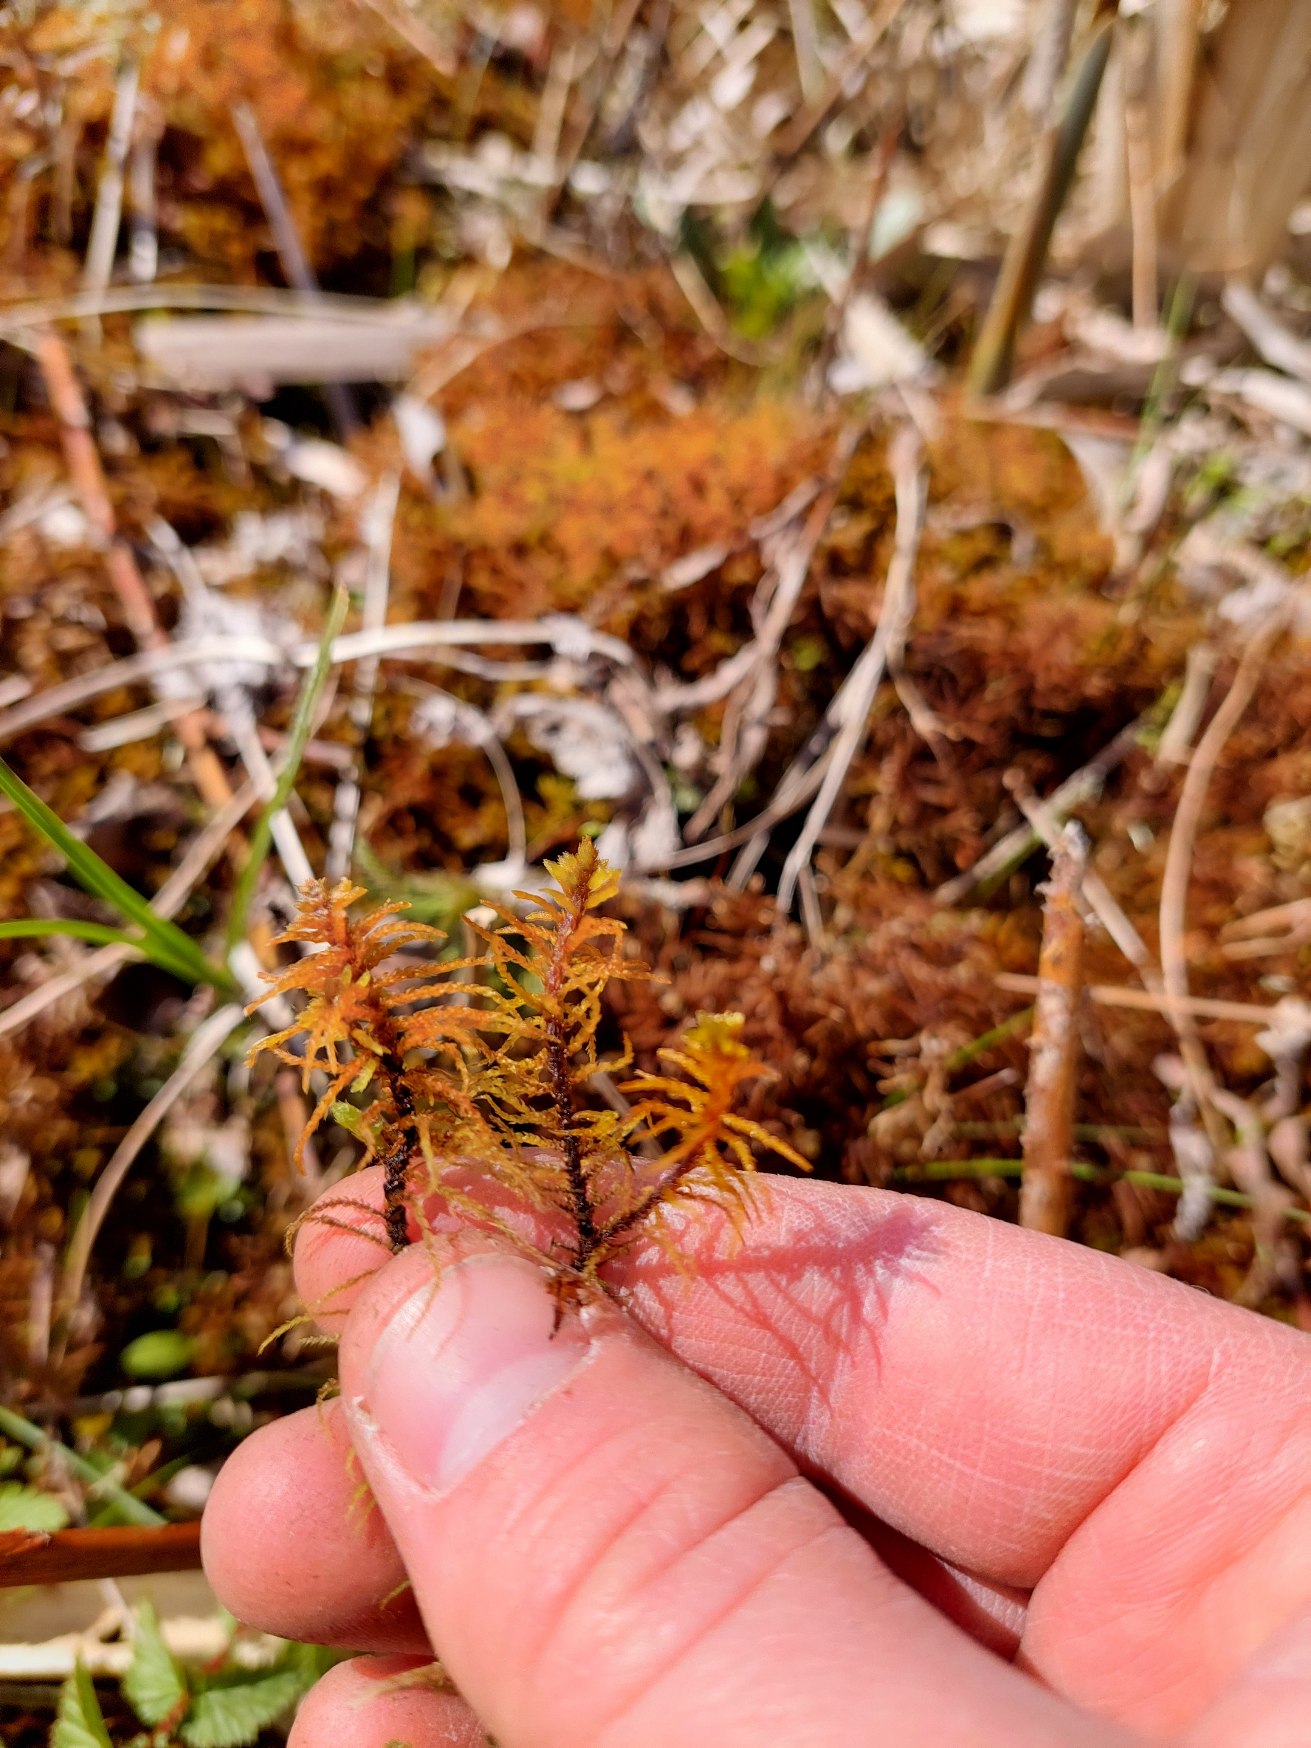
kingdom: Plantae
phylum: Bryophyta
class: Bryopsida
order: Hypnales
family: Helodiaceae
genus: Helodium
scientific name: Helodium blandowii
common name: Kær-gyldenmos
